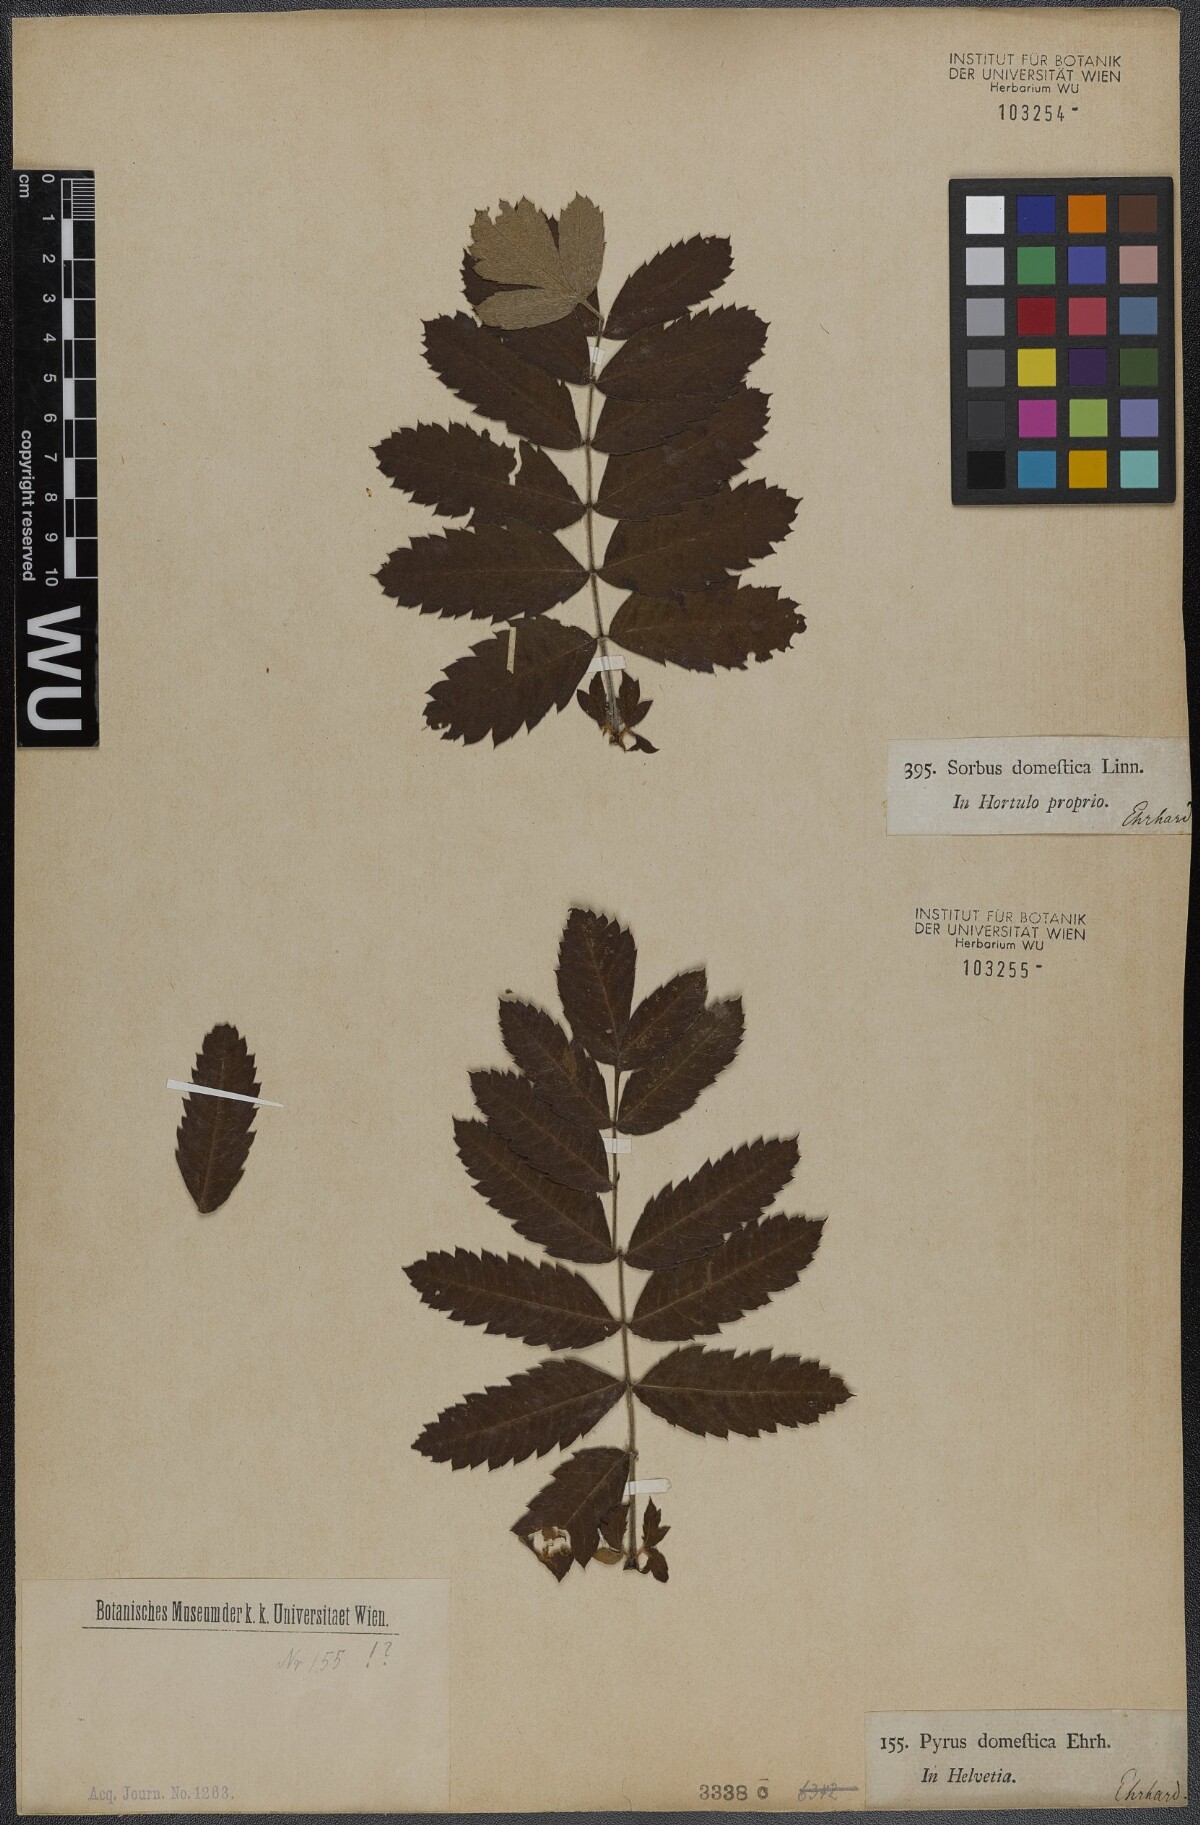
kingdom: Plantae
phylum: Tracheophyta
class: Magnoliopsida
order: Rosales
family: Rosaceae
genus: Cormus
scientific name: Cormus domestica
